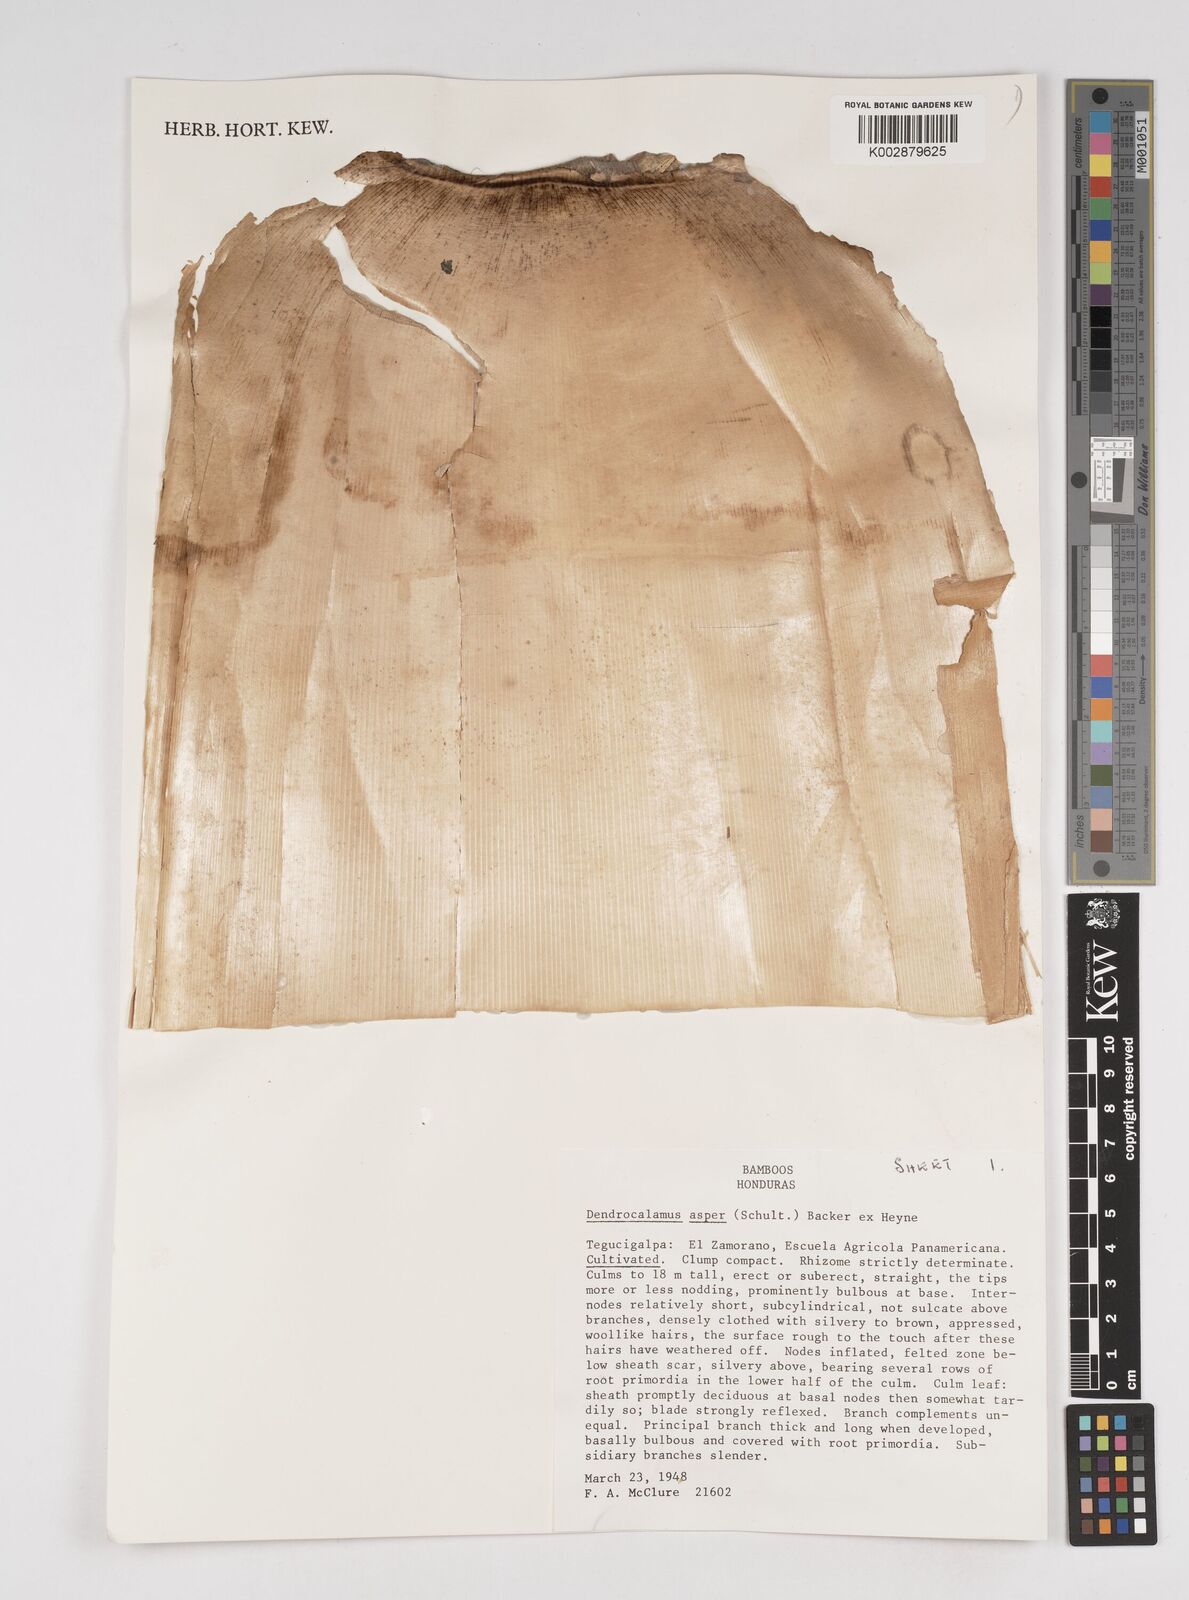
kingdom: Plantae
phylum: Tracheophyta
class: Liliopsida
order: Poales
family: Poaceae
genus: Dendrocalamus
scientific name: Dendrocalamus asper
